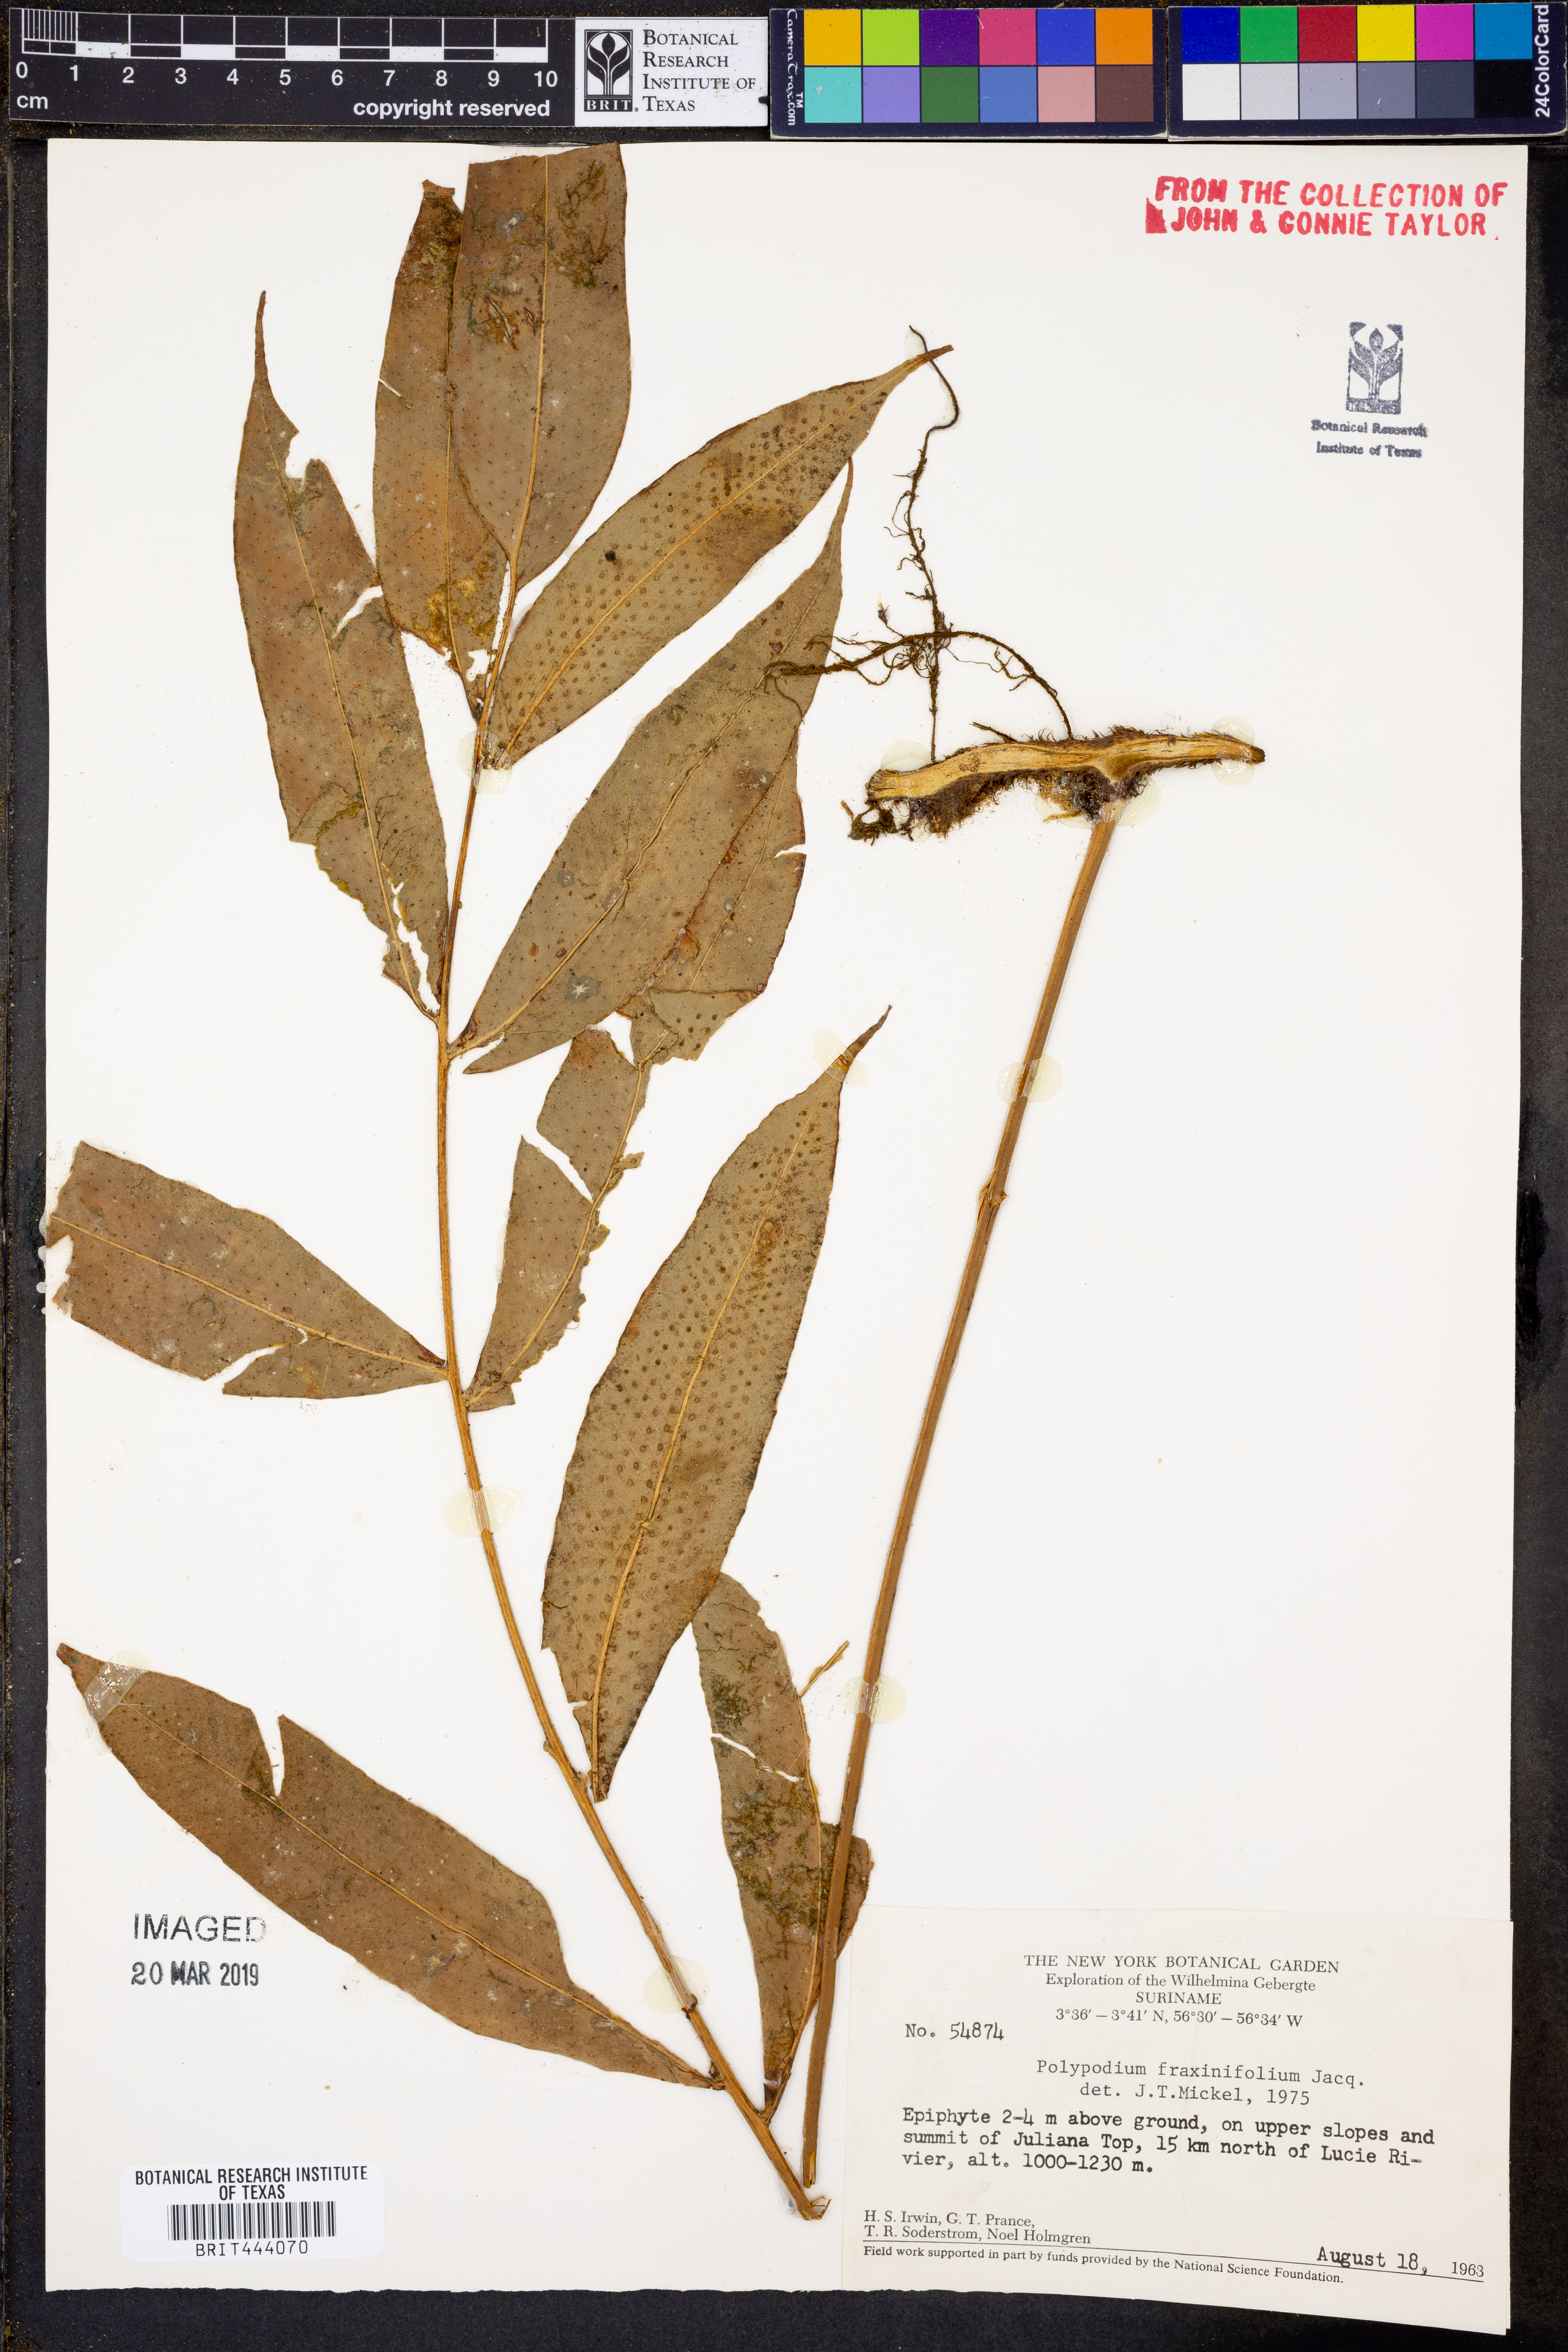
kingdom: Plantae
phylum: Tracheophyta
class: Polypodiopsida
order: Polypodiales
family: Polypodiaceae
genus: Serpocaulon
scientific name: Serpocaulon fraxinifolium
